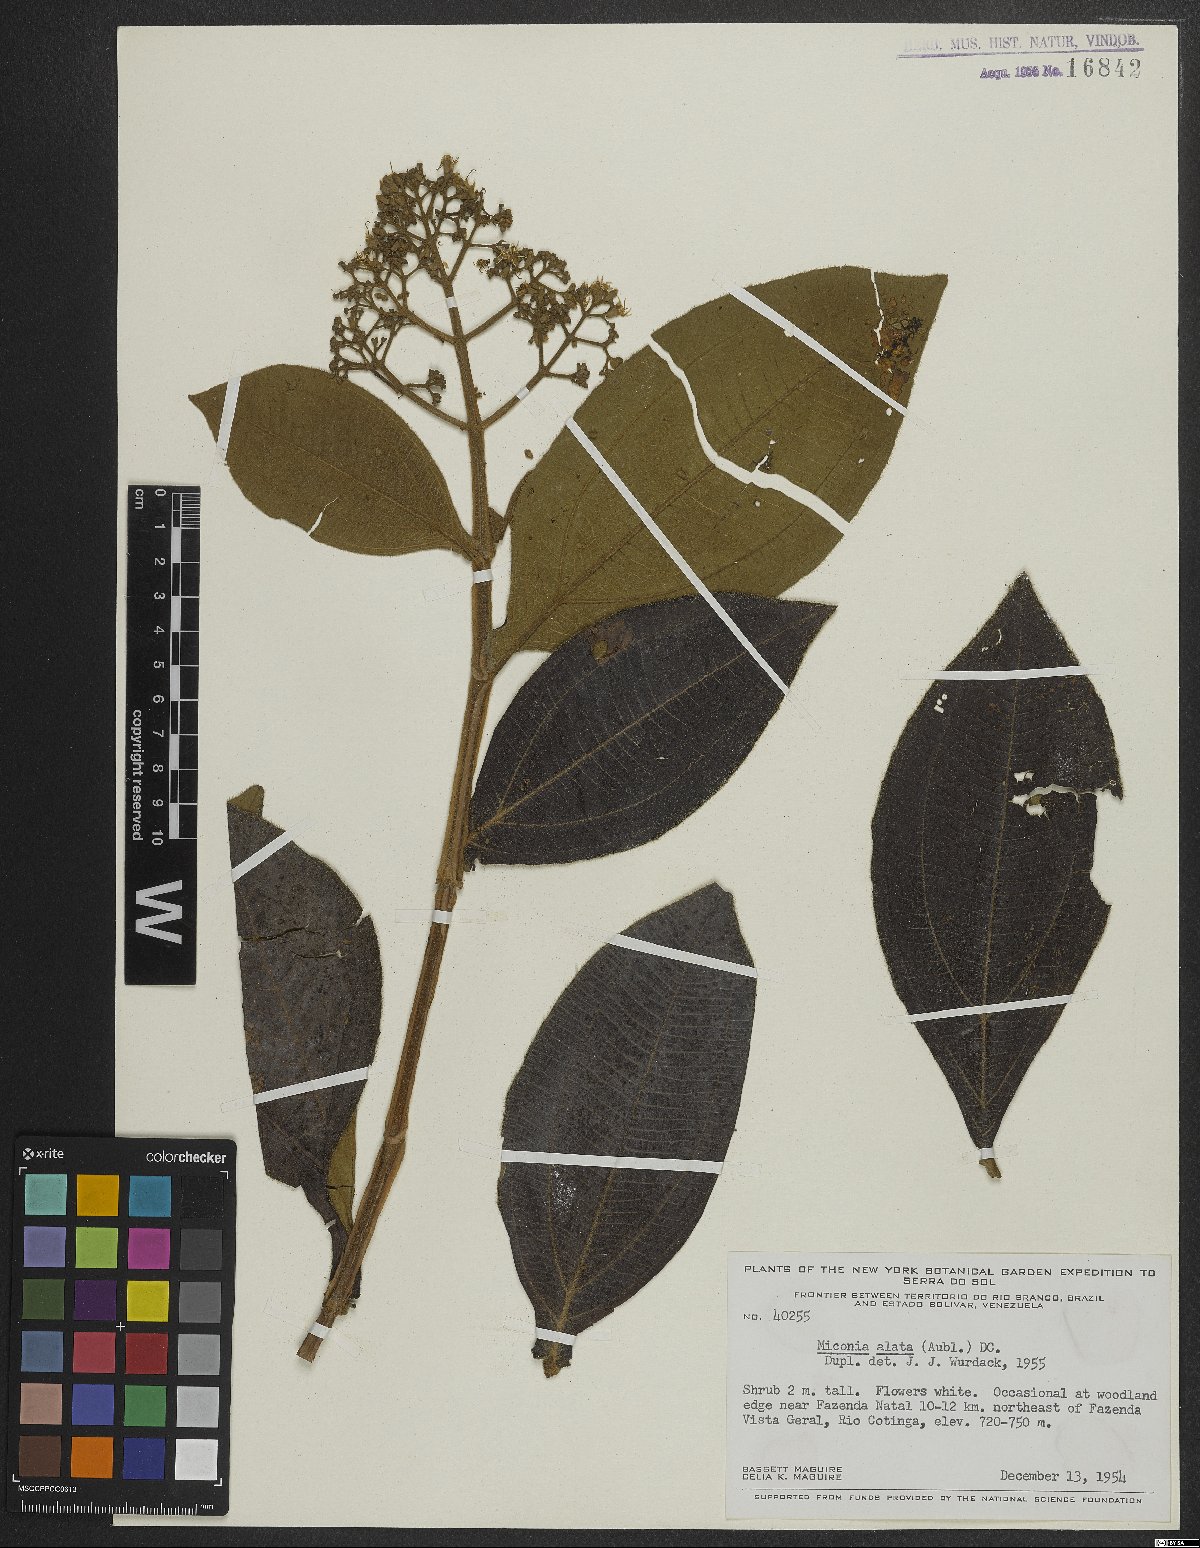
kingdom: Plantae
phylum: Tracheophyta
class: Magnoliopsida
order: Myrtales
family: Melastomataceae
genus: Miconia
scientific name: Miconia alata
